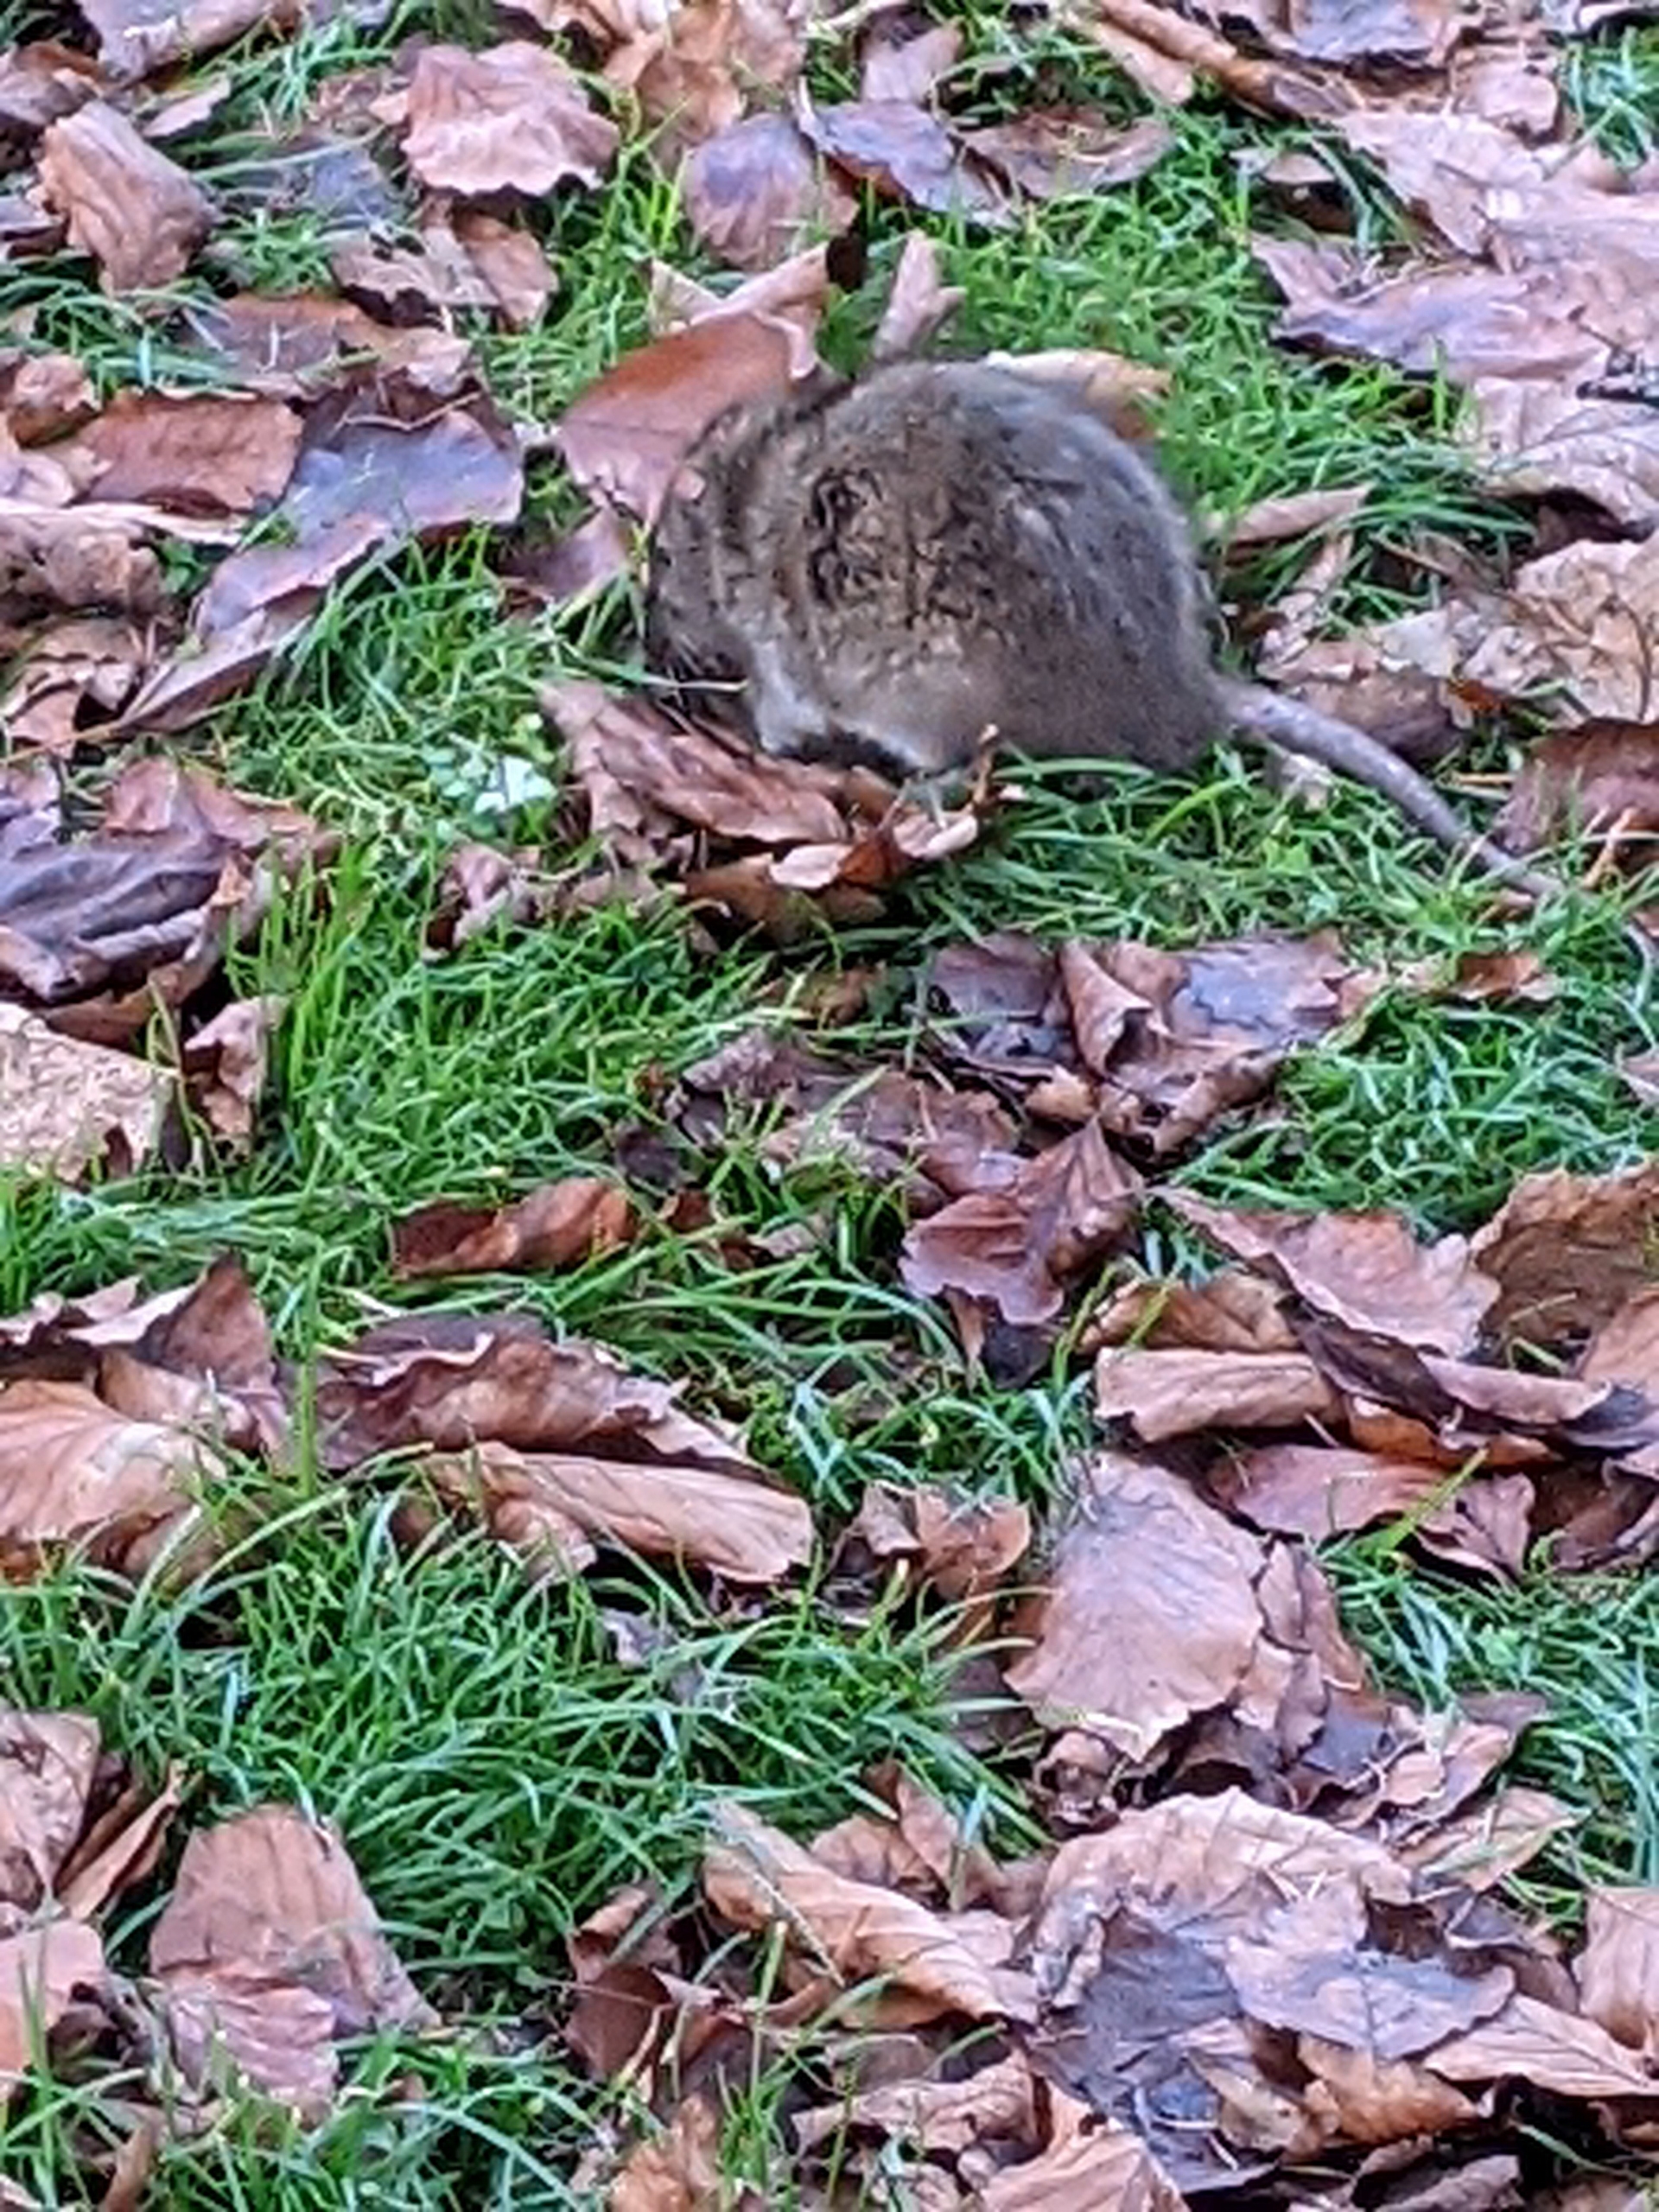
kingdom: Animalia
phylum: Chordata
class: Mammalia
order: Rodentia
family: Muridae
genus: Rattus
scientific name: Rattus norvegicus
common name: Brun rotte
